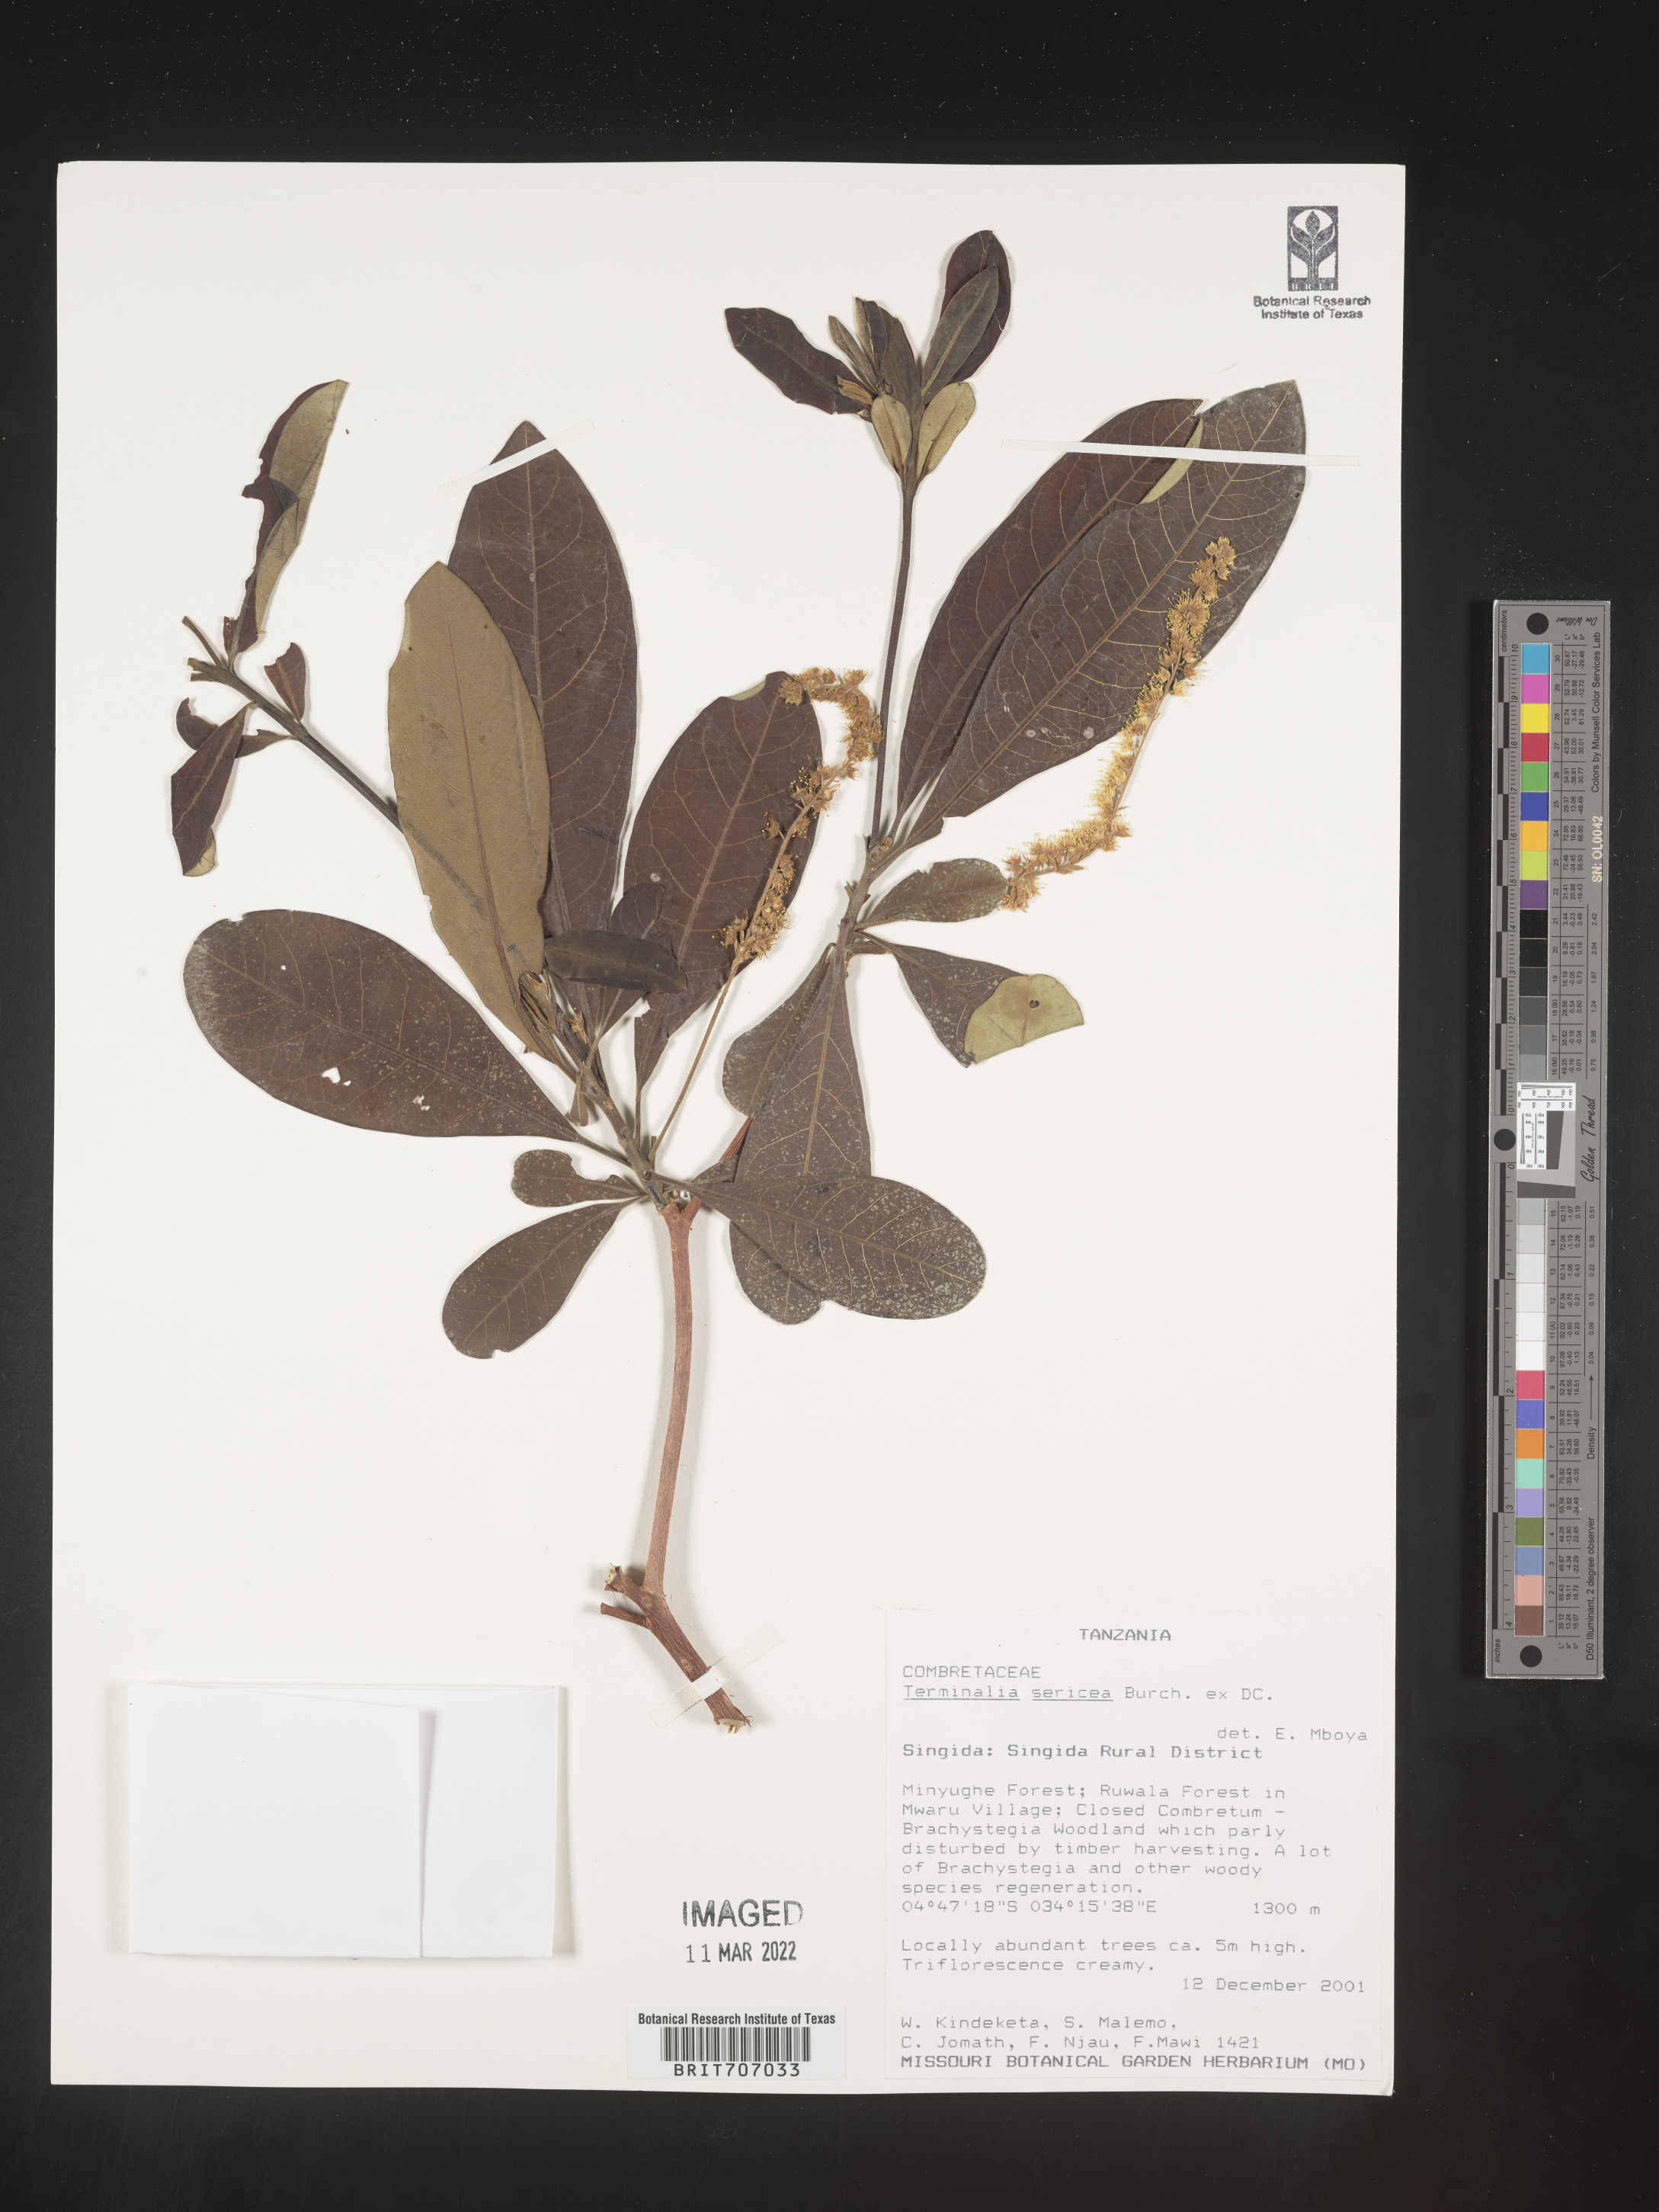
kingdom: Plantae
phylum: Tracheophyta
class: Magnoliopsida
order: Myrtales
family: Combretaceae
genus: Terminalia
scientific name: Terminalia
